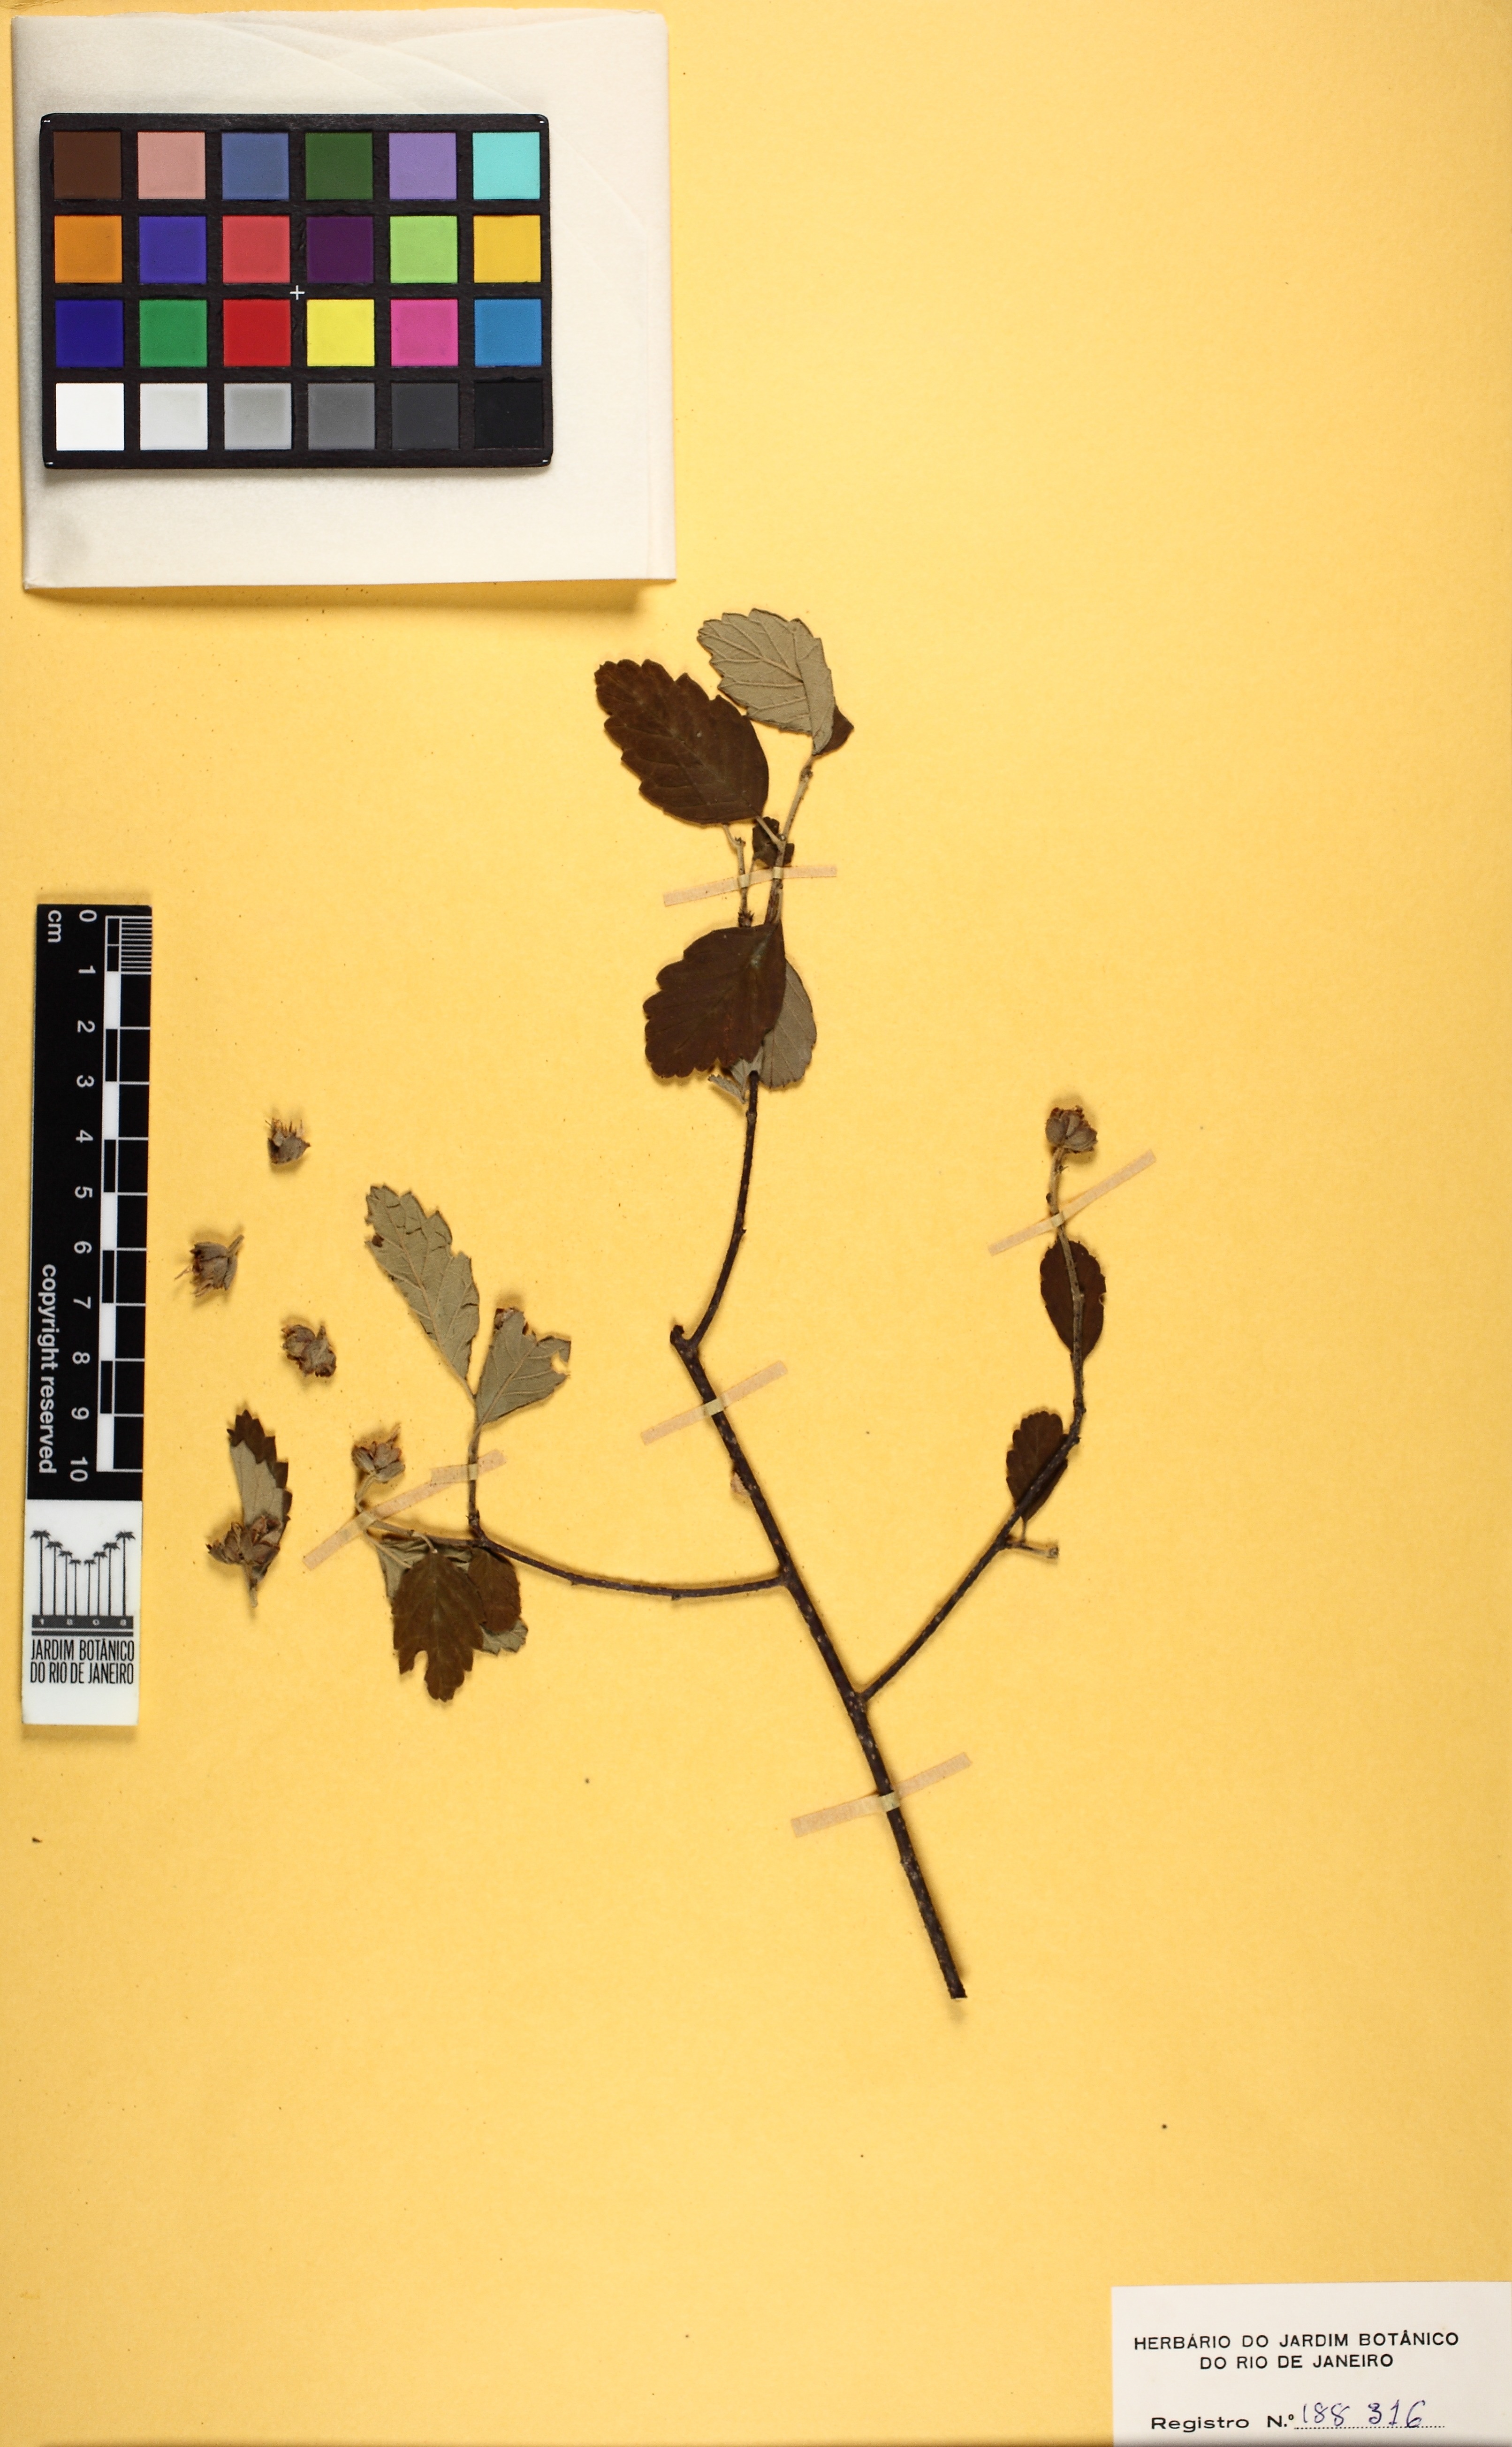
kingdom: Plantae
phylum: Tracheophyta
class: Magnoliopsida
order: Malpighiales
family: Turneraceae
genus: Turnera
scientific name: Turnera blanchetiana
